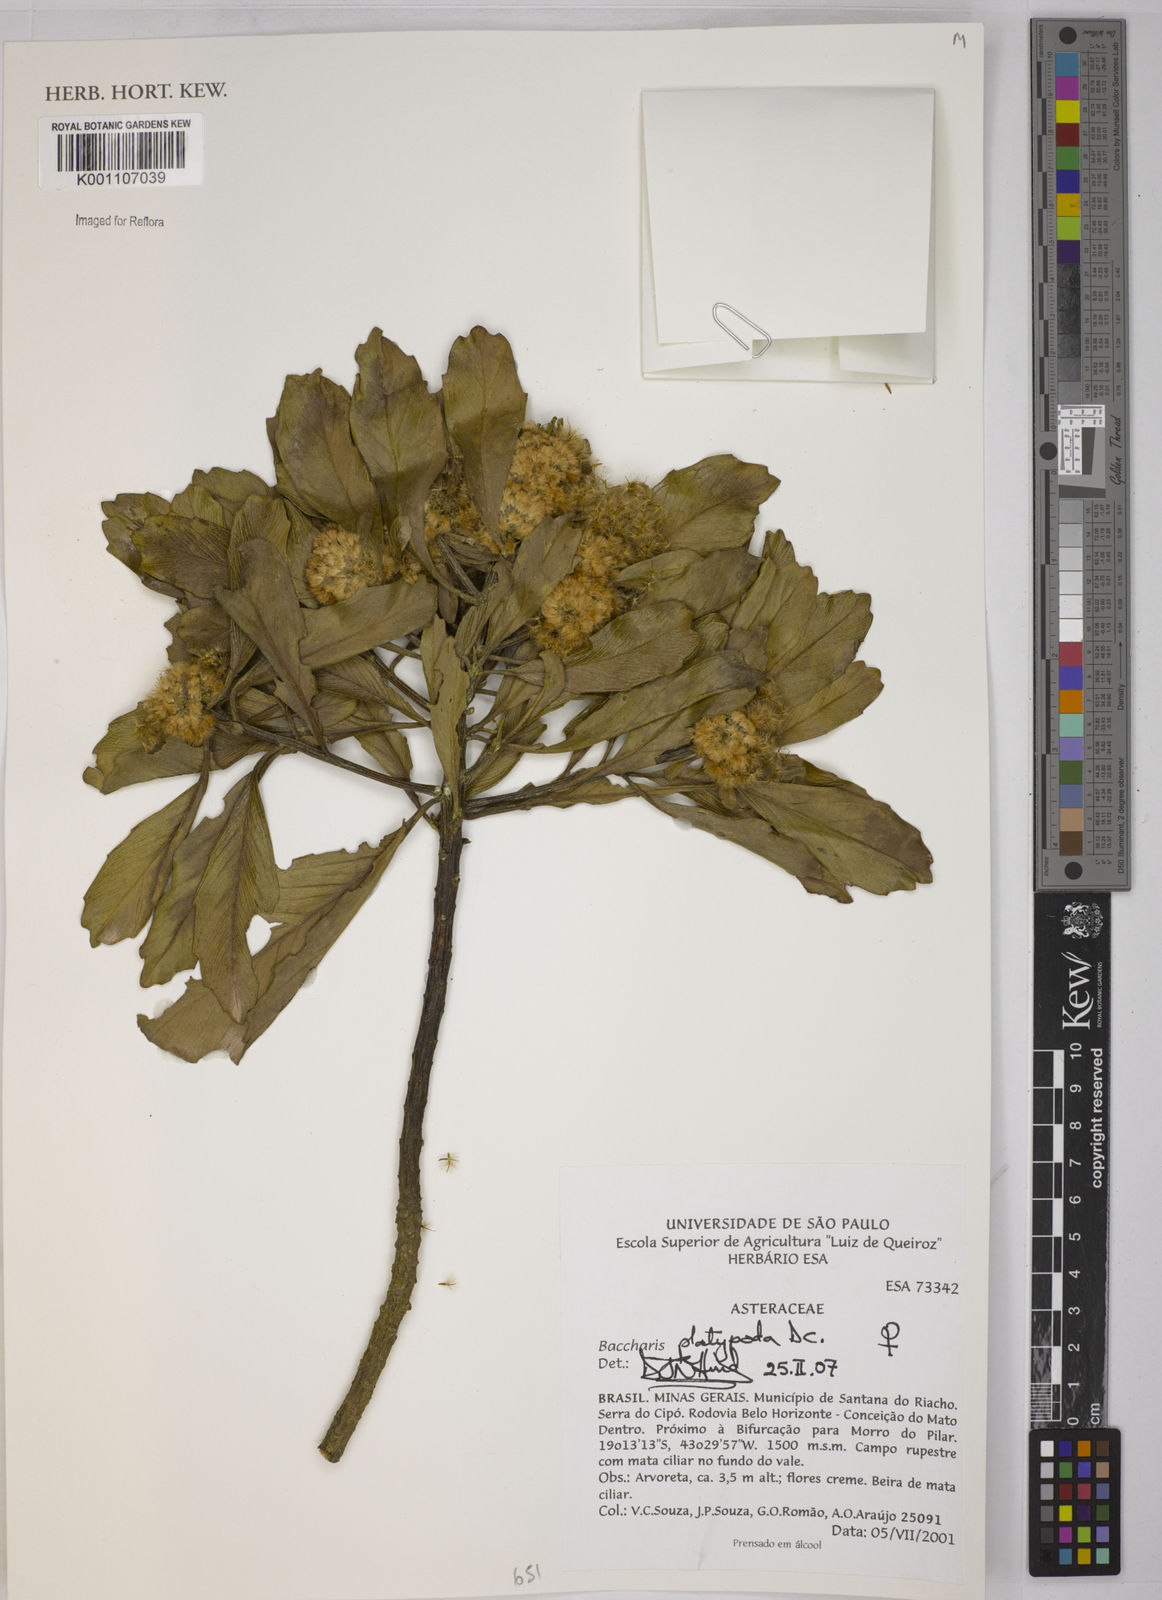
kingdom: Plantae
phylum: Tracheophyta
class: Magnoliopsida
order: Asterales
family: Asteraceae
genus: Baccharis
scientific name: Baccharis platypoda
